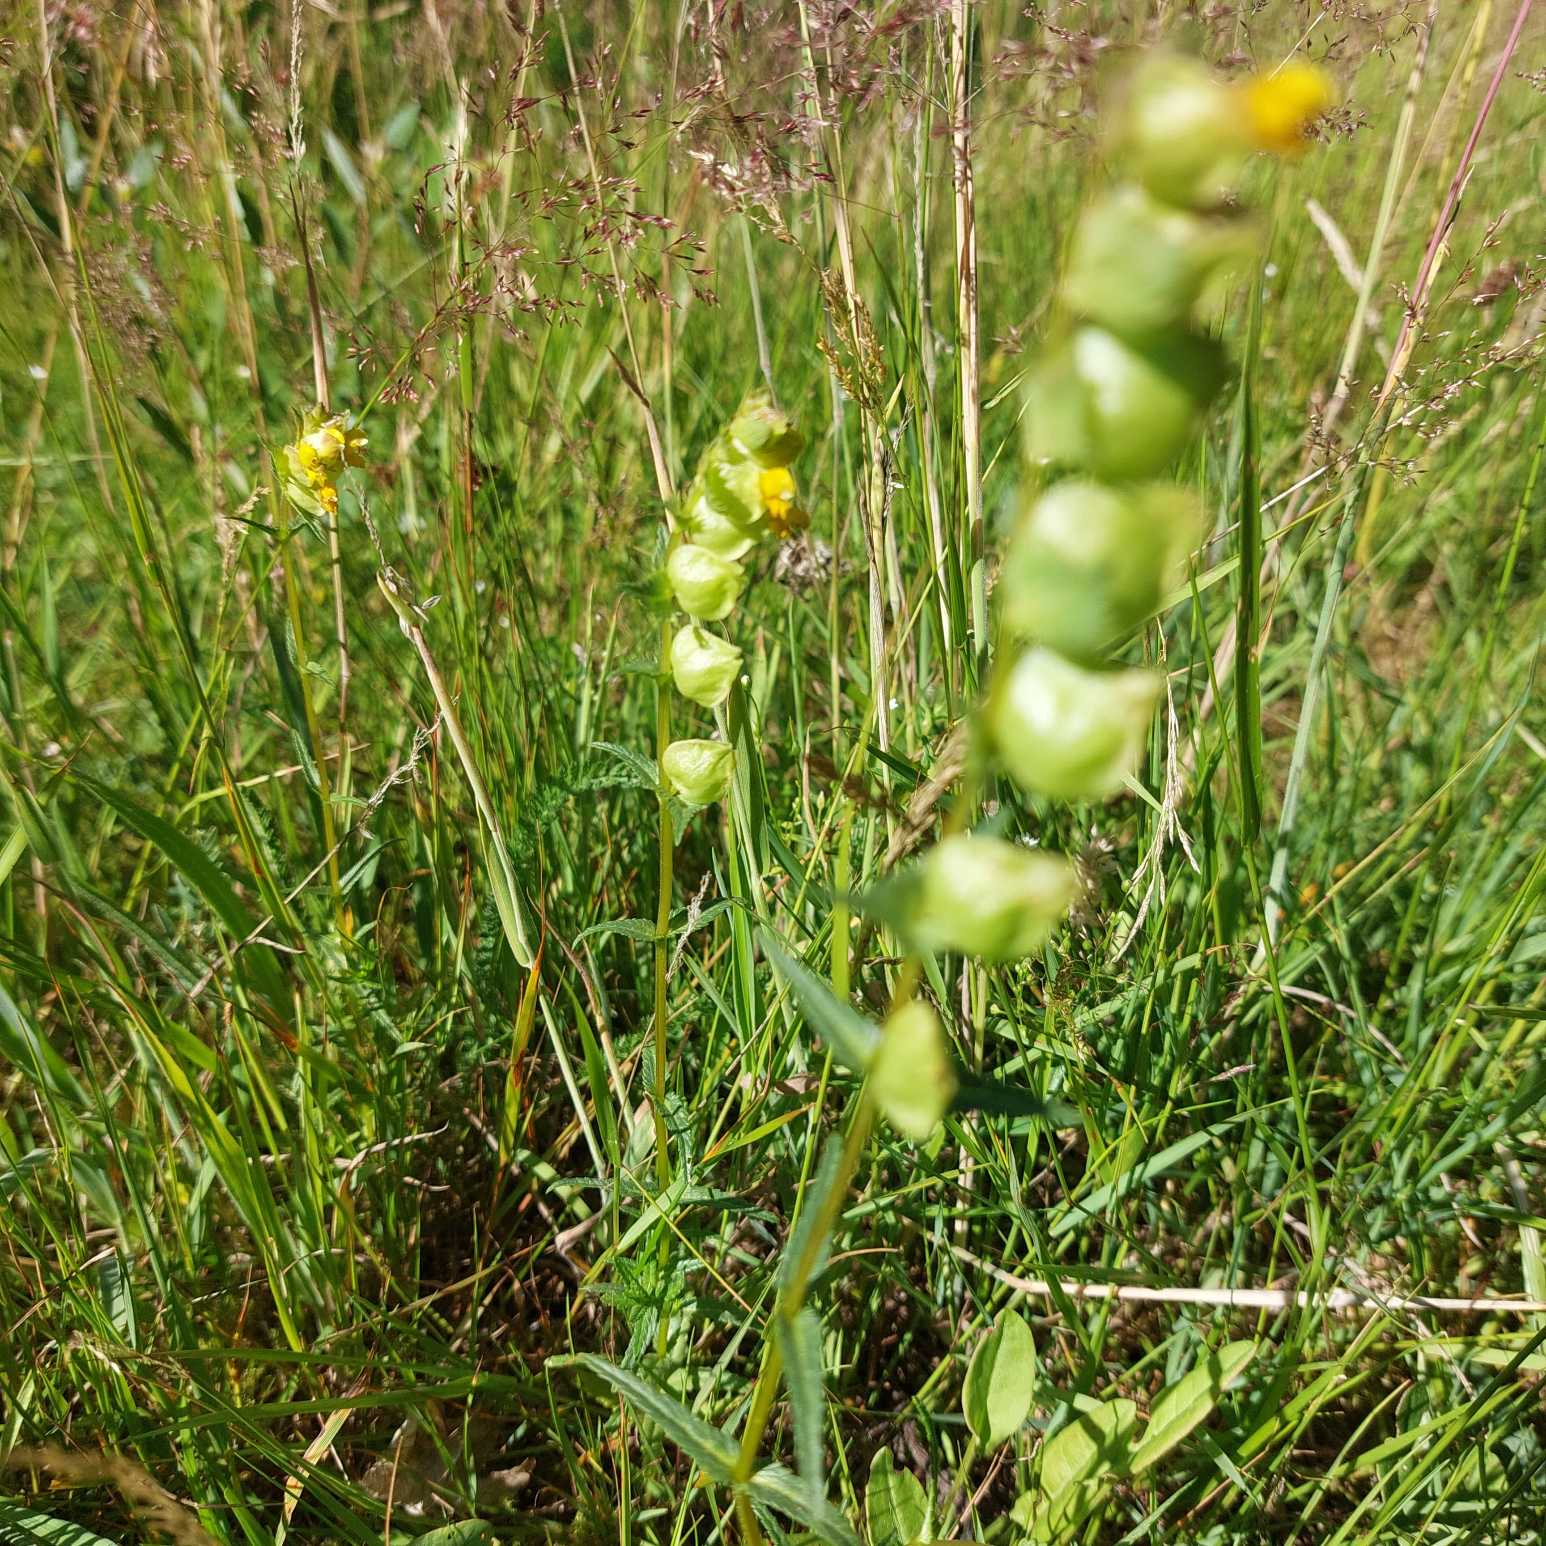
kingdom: Plantae
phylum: Tracheophyta
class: Magnoliopsida
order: Lamiales
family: Orobanchaceae
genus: Rhinanthus
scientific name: Rhinanthus minor
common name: Liden skjaller
